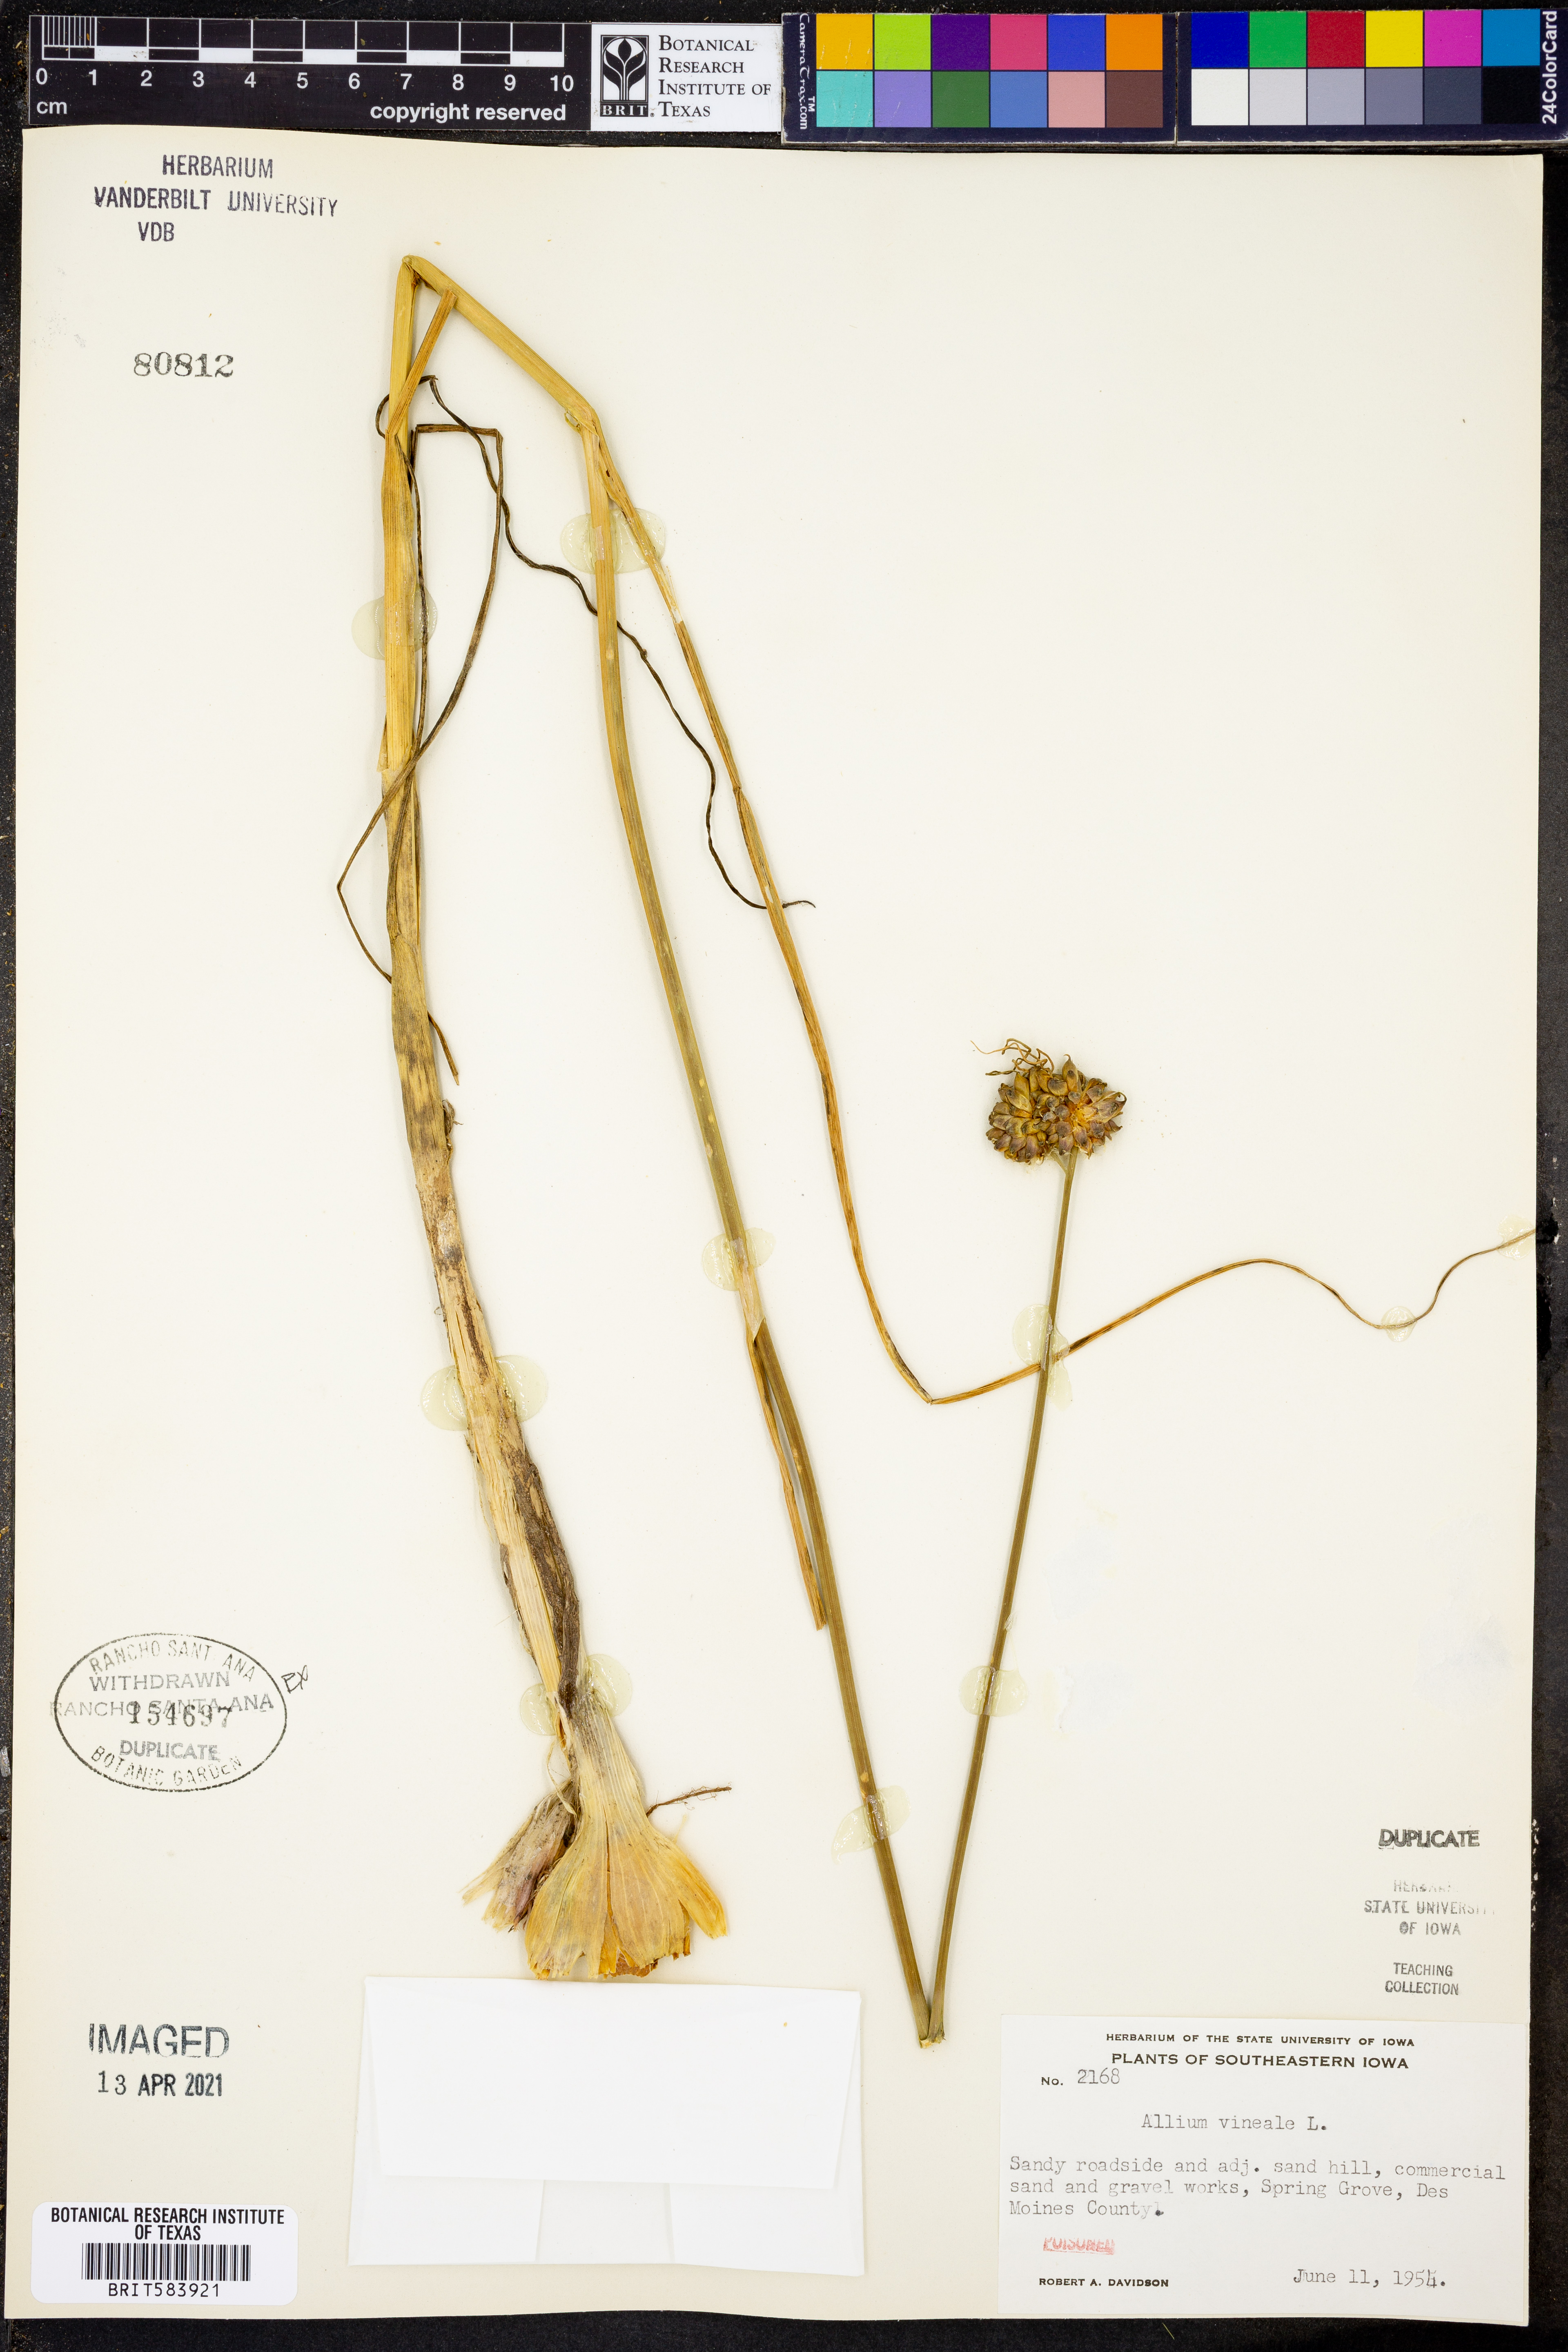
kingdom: Plantae
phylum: Tracheophyta
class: Liliopsida
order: Asparagales
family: Amaryllidaceae
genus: Allium
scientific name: Allium vineale
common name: Crow garlic
